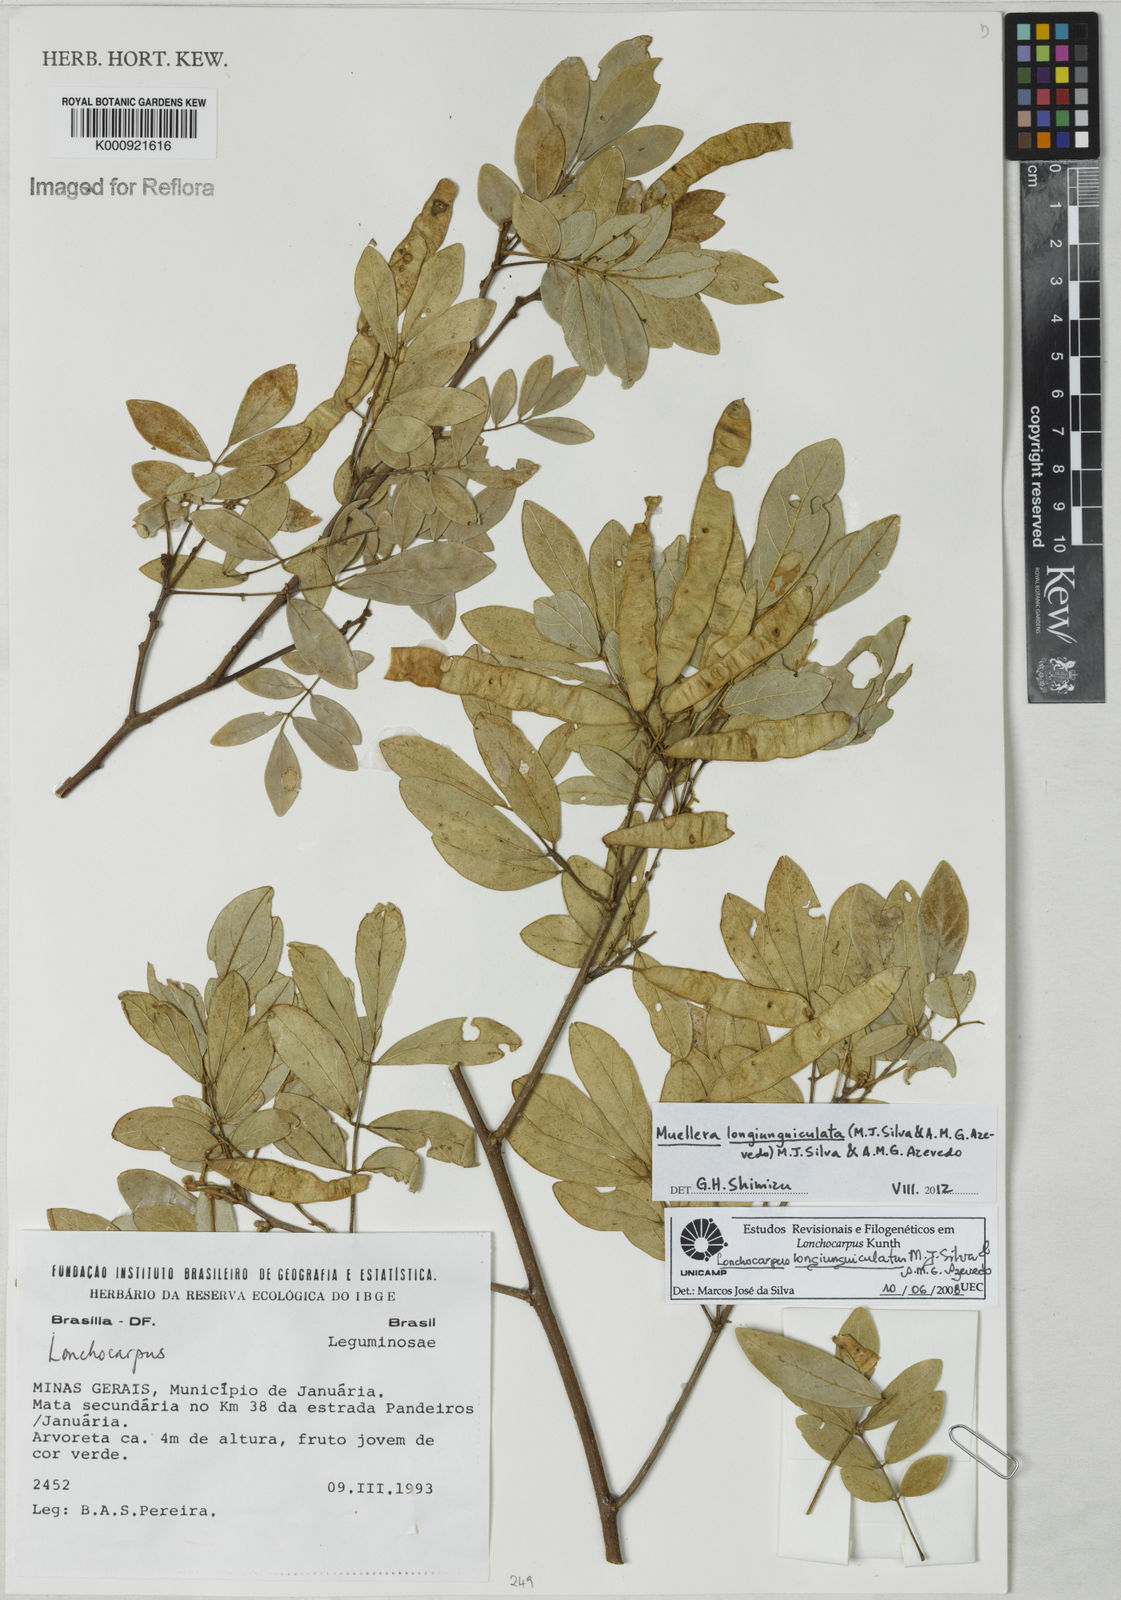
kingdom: Plantae
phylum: Tracheophyta
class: Magnoliopsida
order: Fabales
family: Fabaceae
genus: Muellera
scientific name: Muellera longiunguiculata
